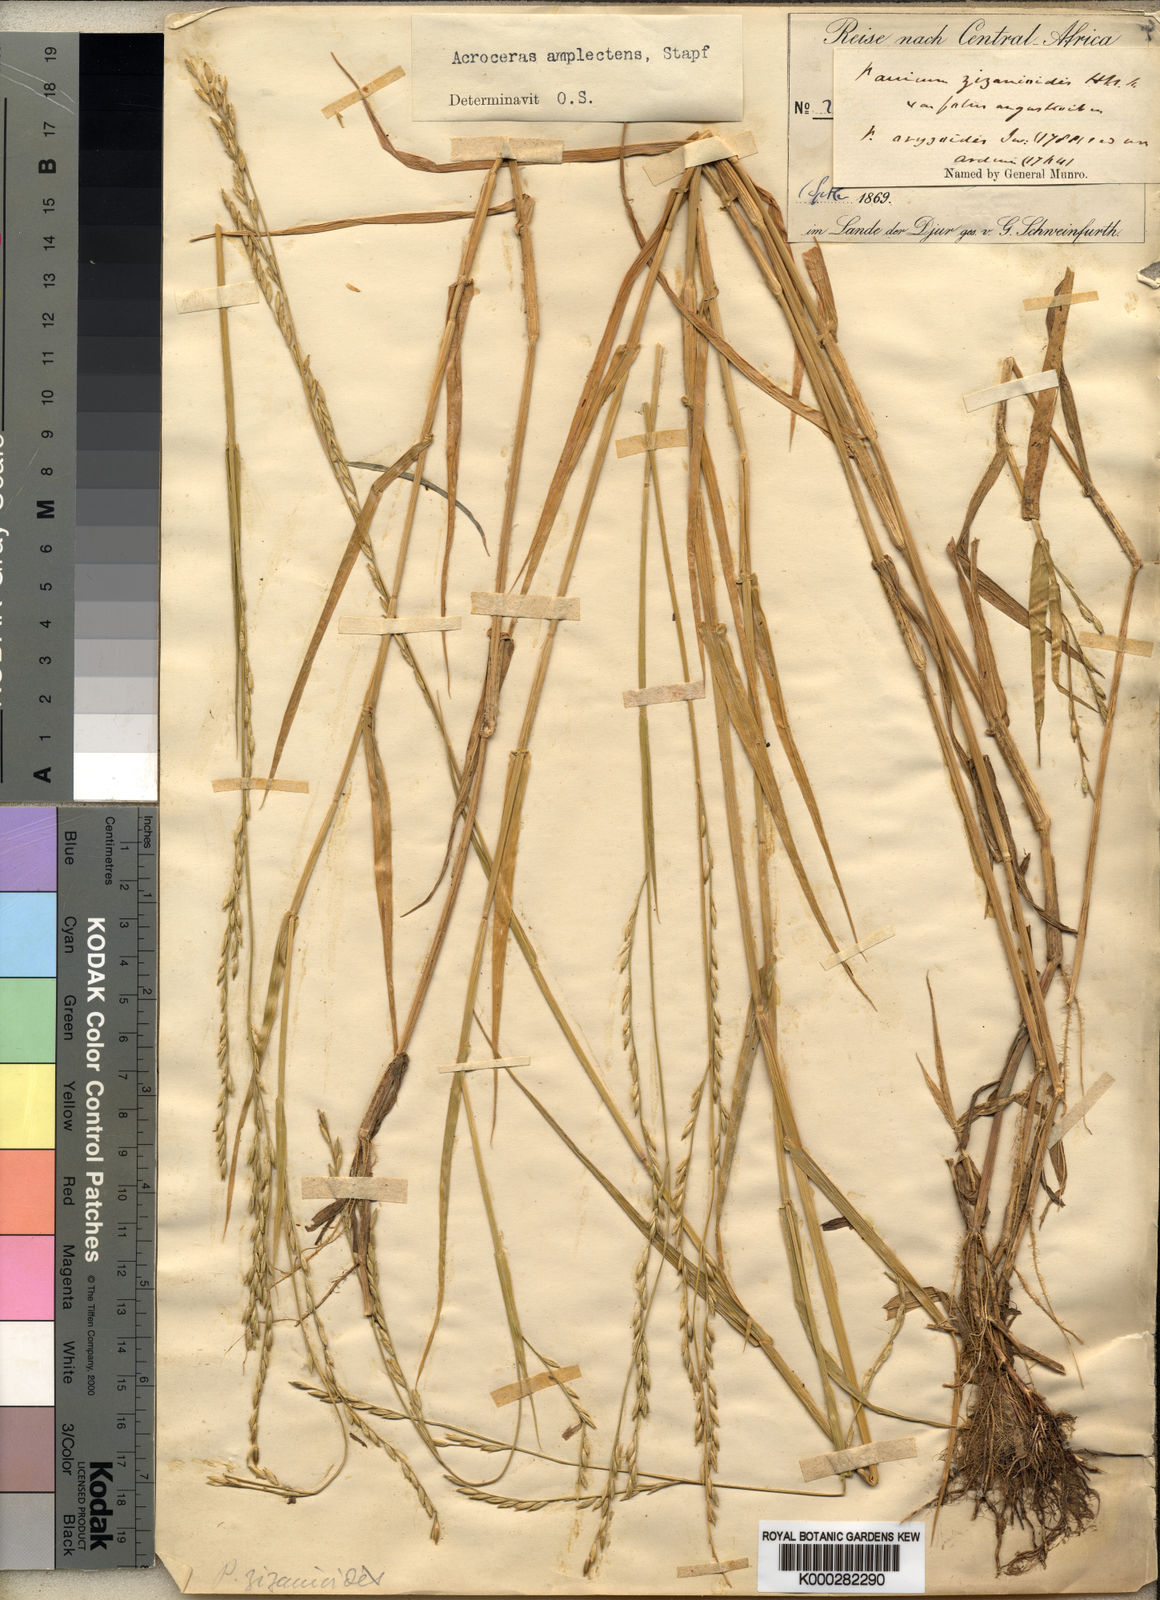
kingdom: Plantae
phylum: Tracheophyta
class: Liliopsida
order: Poales
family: Poaceae
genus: Acroceras
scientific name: Acroceras amplectens
